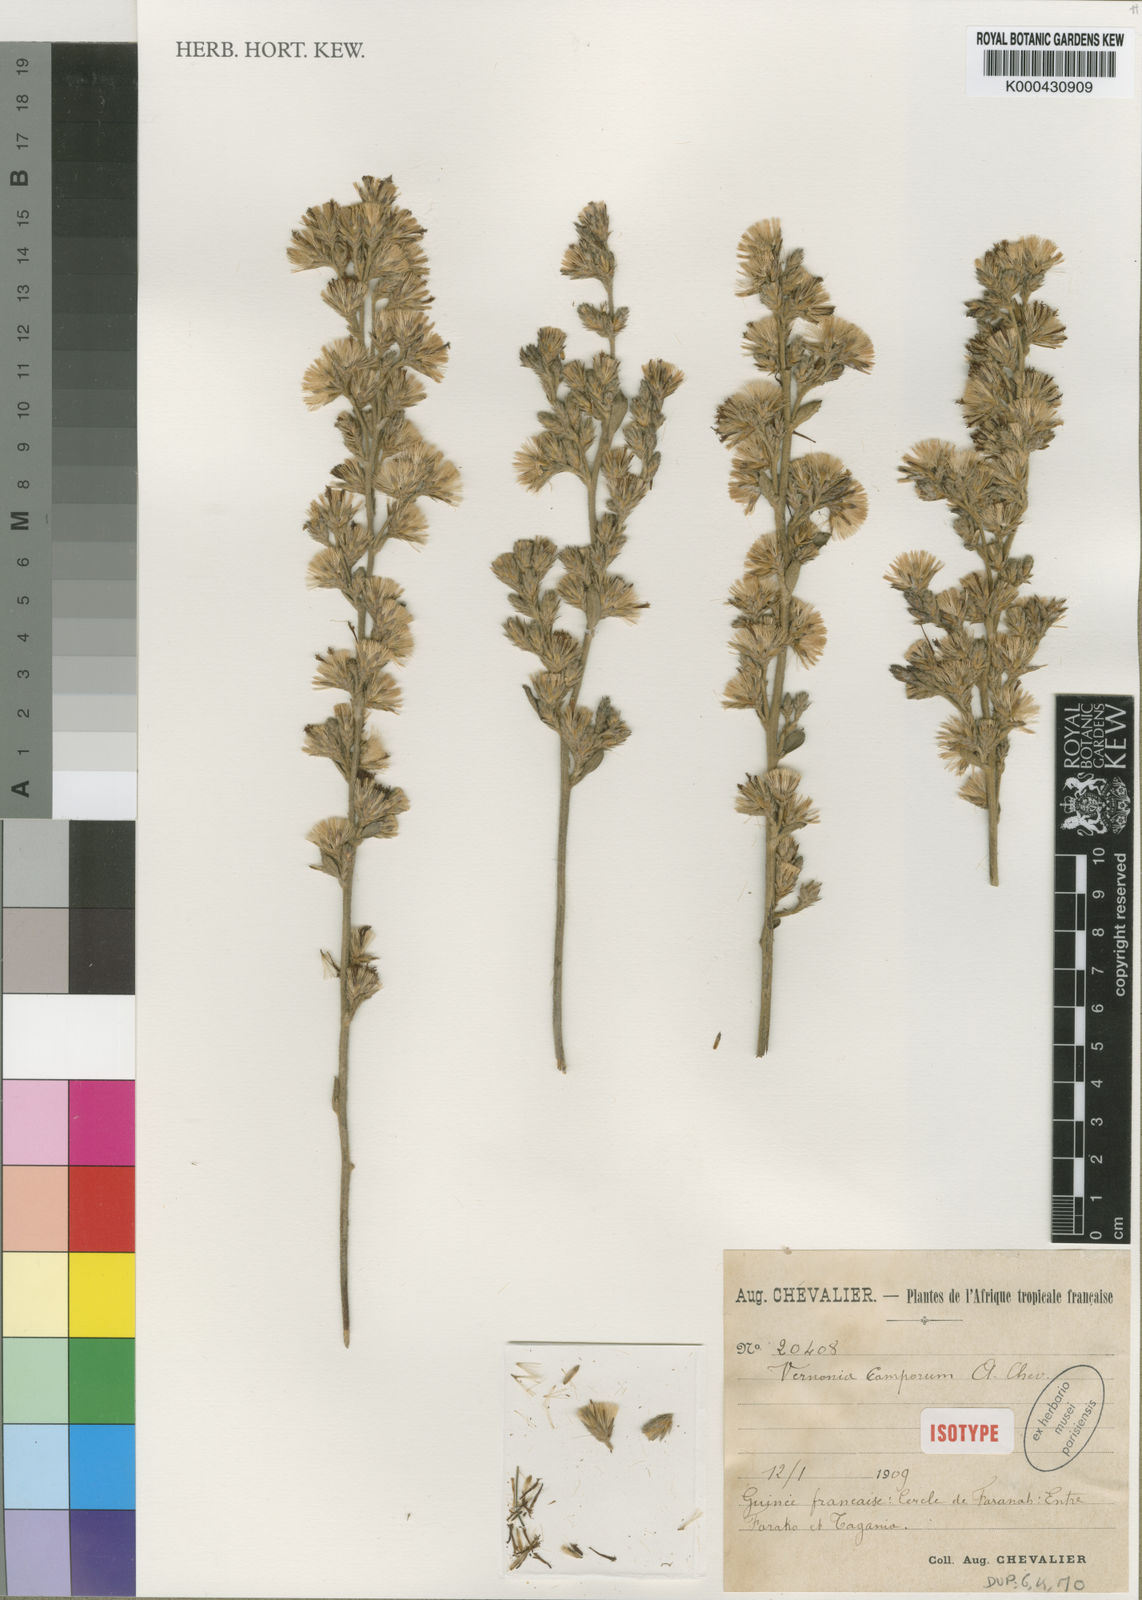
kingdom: Plantae
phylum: Tracheophyta
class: Magnoliopsida
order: Asterales
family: Asteraceae
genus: Vernoniastrum
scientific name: Vernoniastrum camporum
